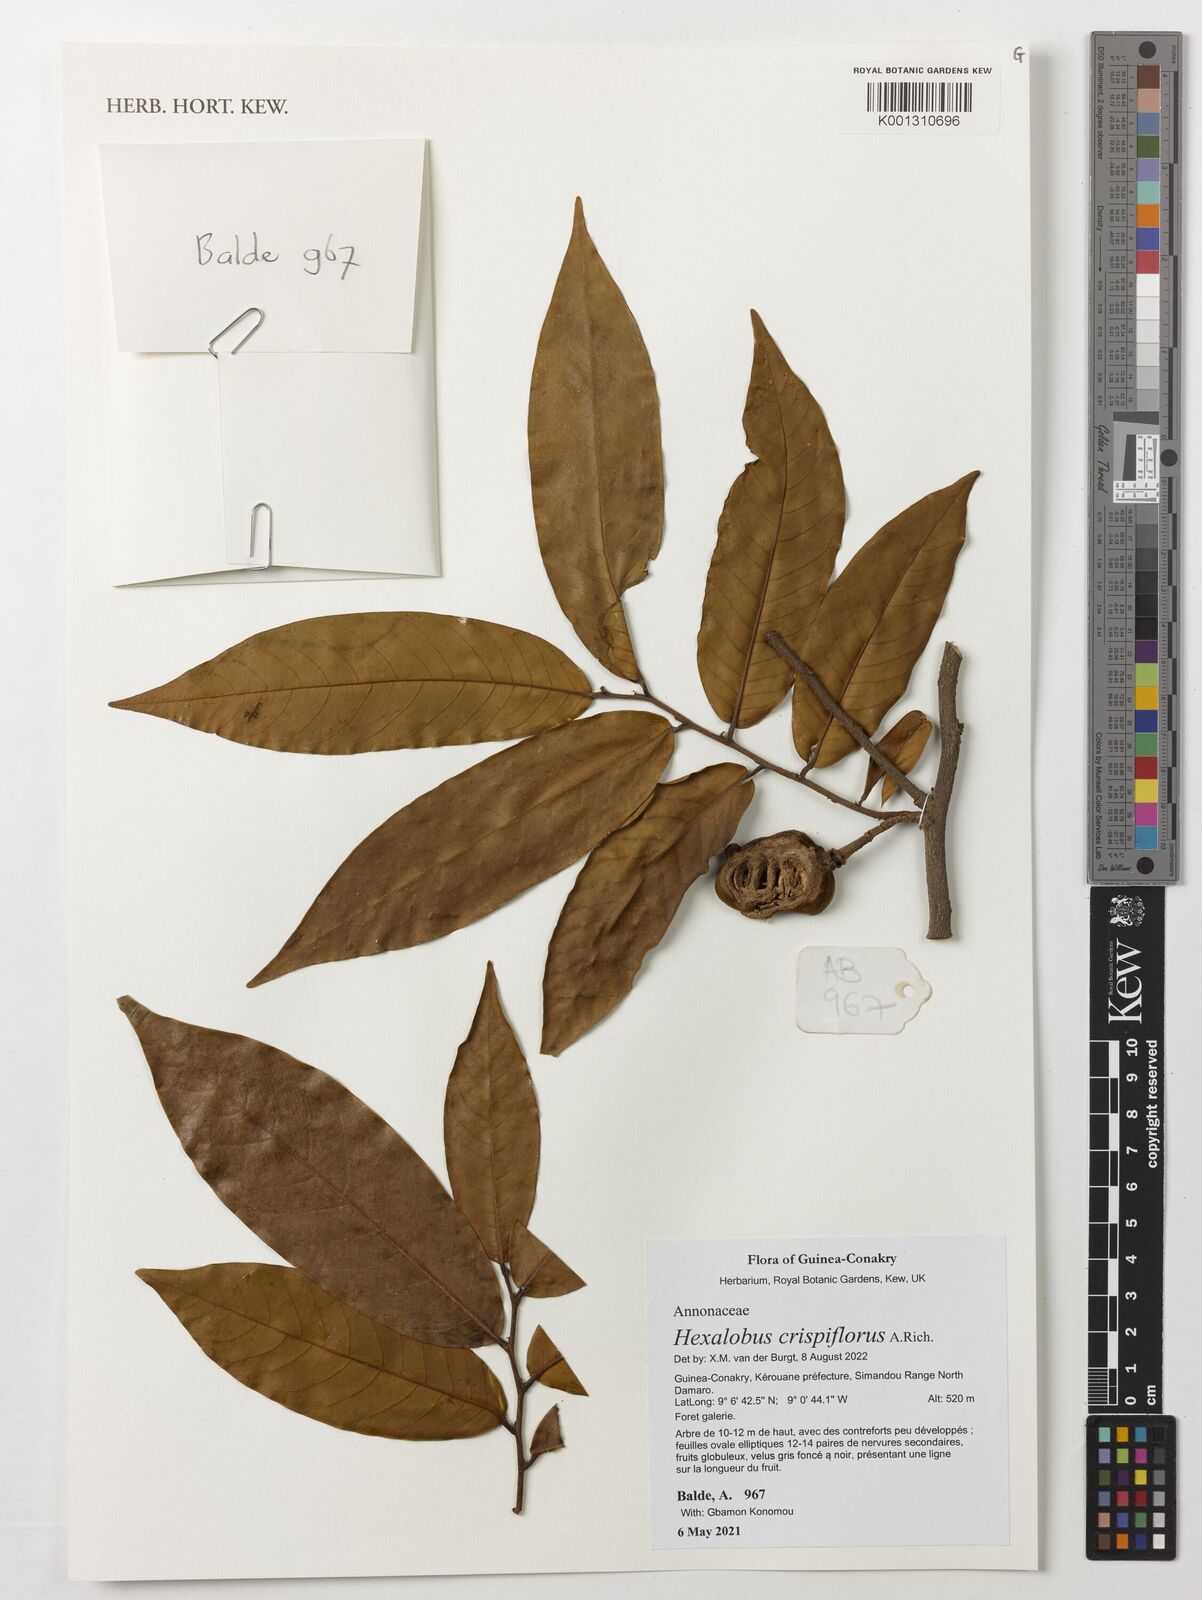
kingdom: Plantae
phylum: Tracheophyta
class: Magnoliopsida
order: Magnoliales
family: Annonaceae
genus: Hexalobus
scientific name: Hexalobus crispiflorus
